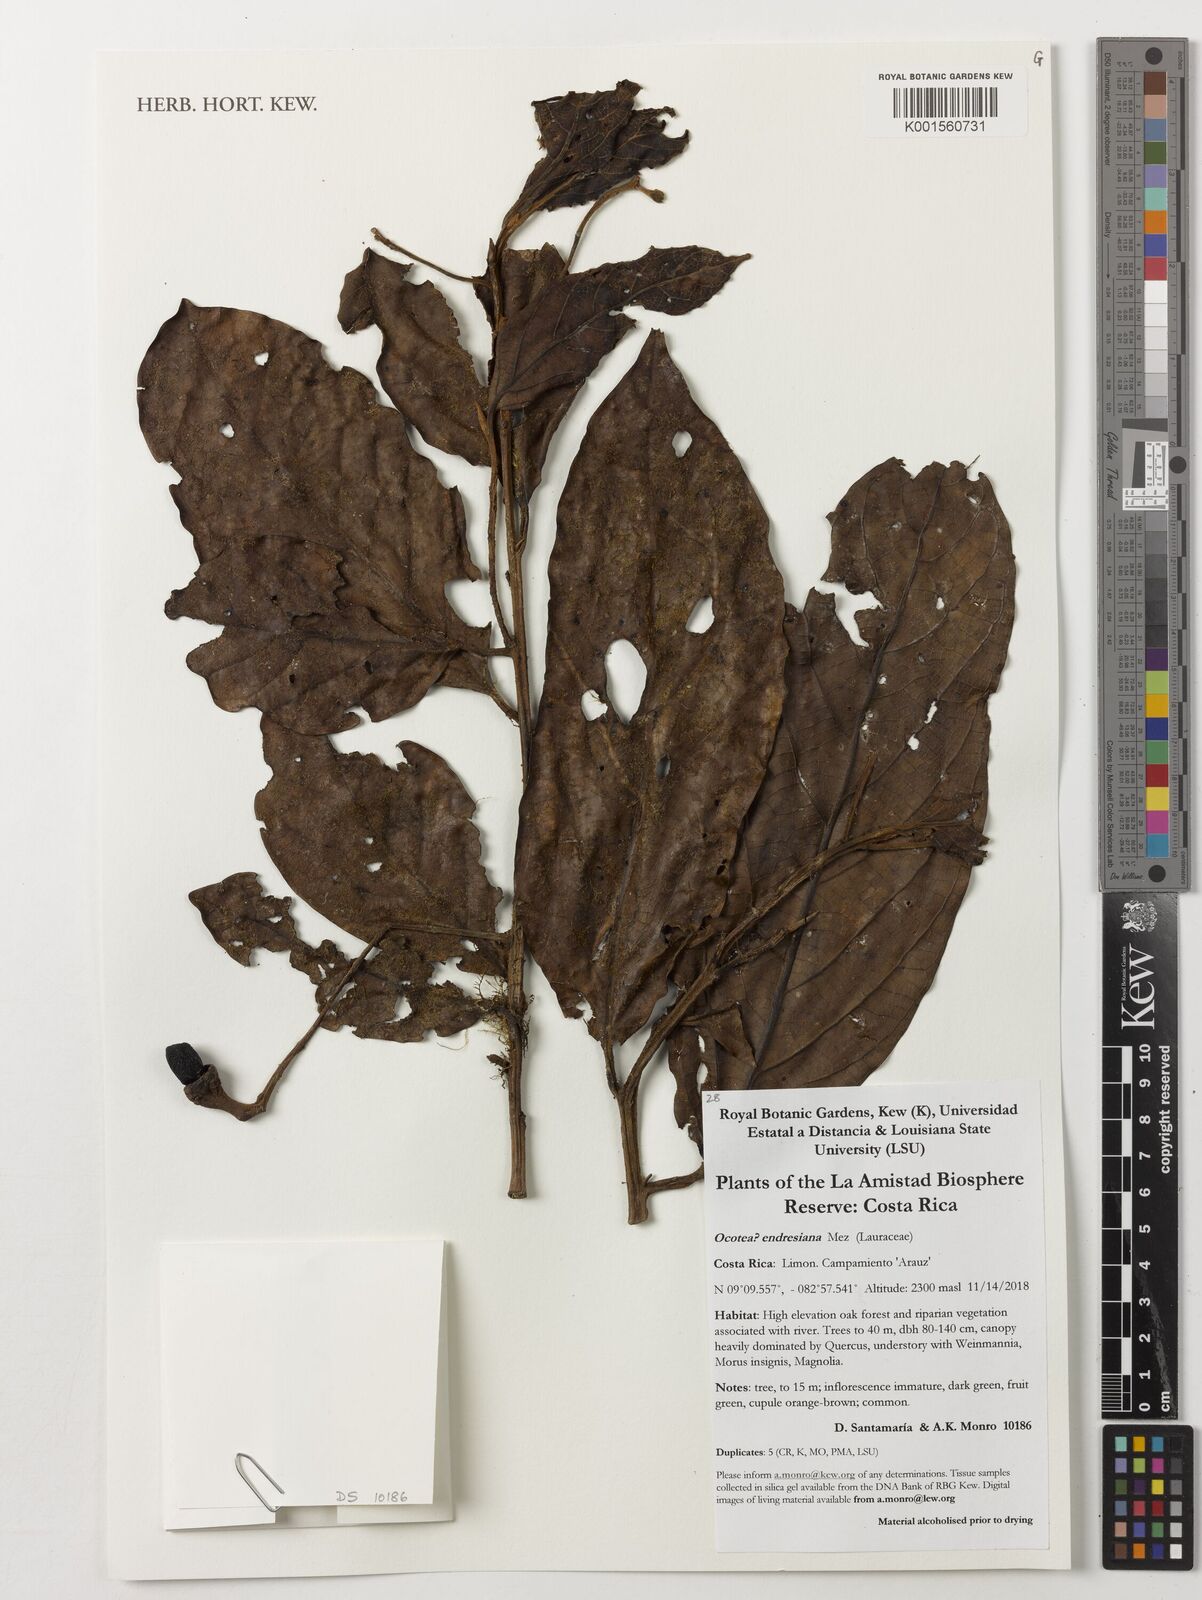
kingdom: Plantae
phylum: Tracheophyta
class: Magnoliopsida
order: Laurales
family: Lauraceae
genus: Ocotea
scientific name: Ocotea endresiana
